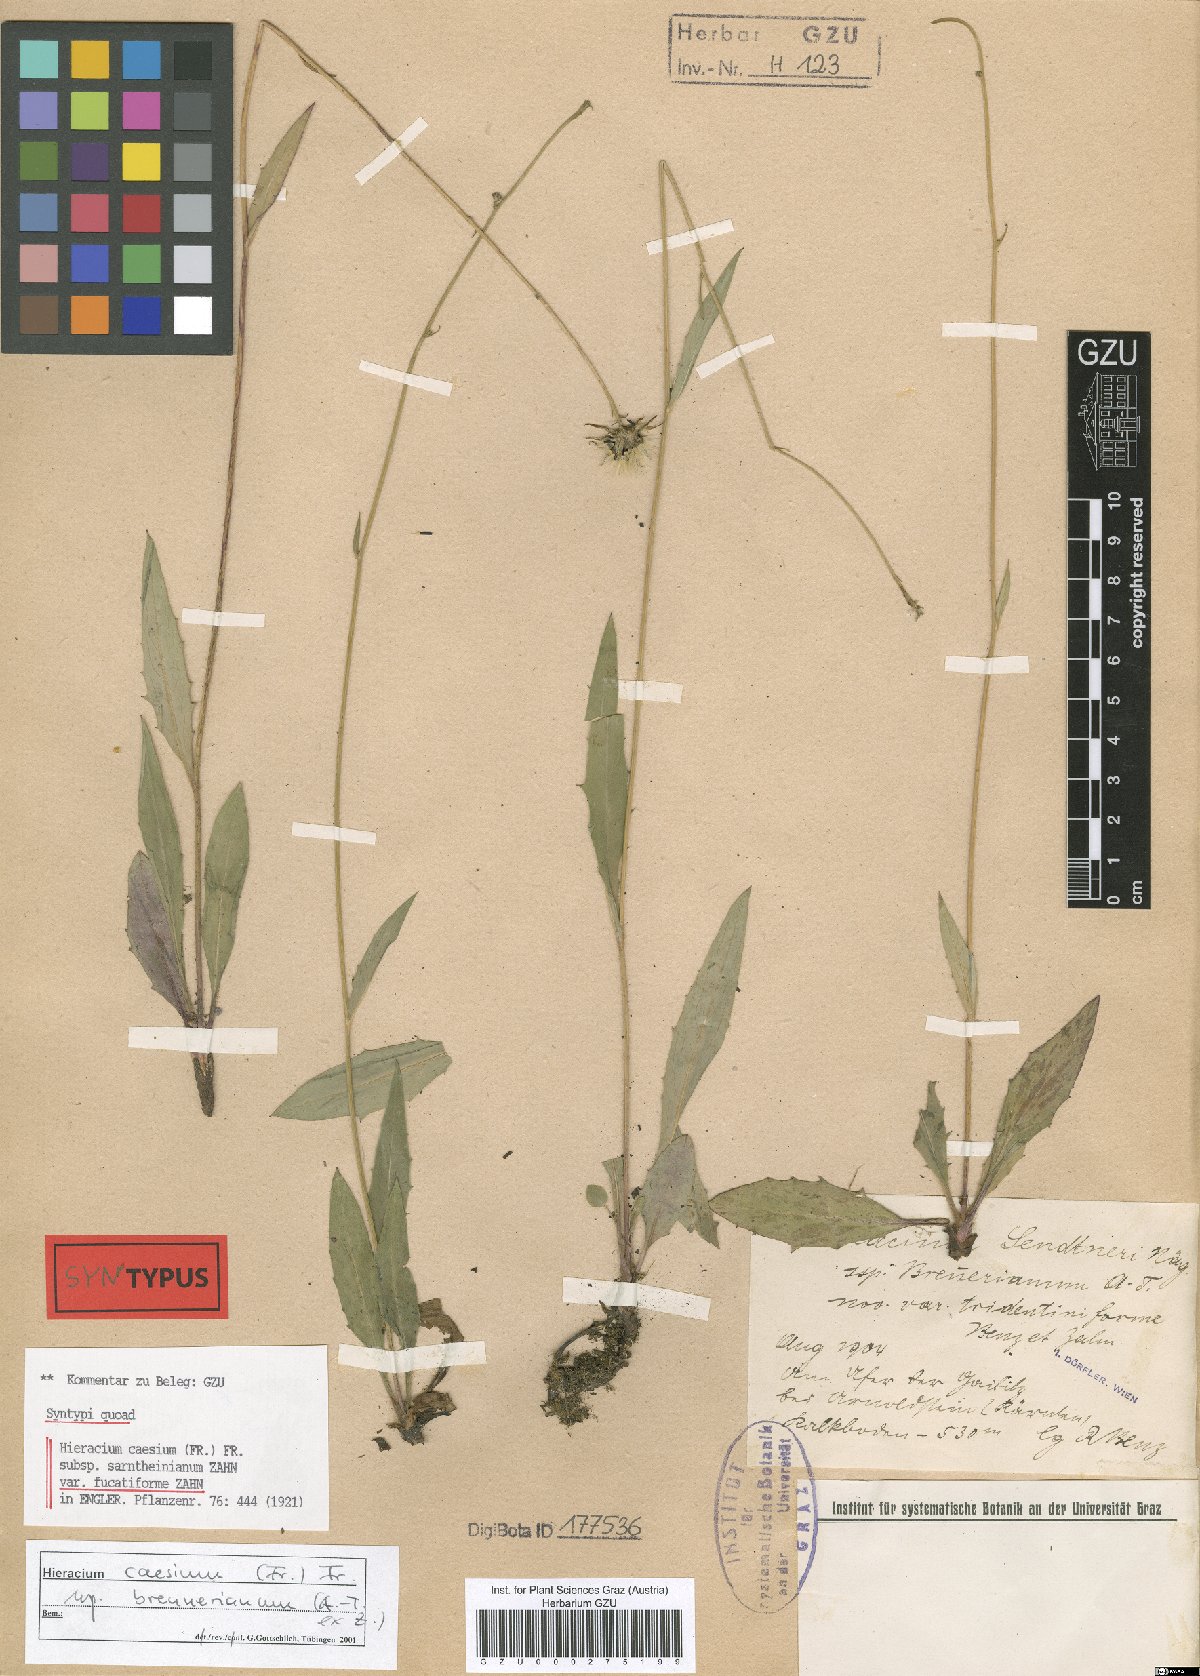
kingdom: Plantae
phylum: Tracheophyta
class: Magnoliopsida
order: Asterales
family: Asteraceae
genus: Hieracium
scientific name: Hieracium caesium
